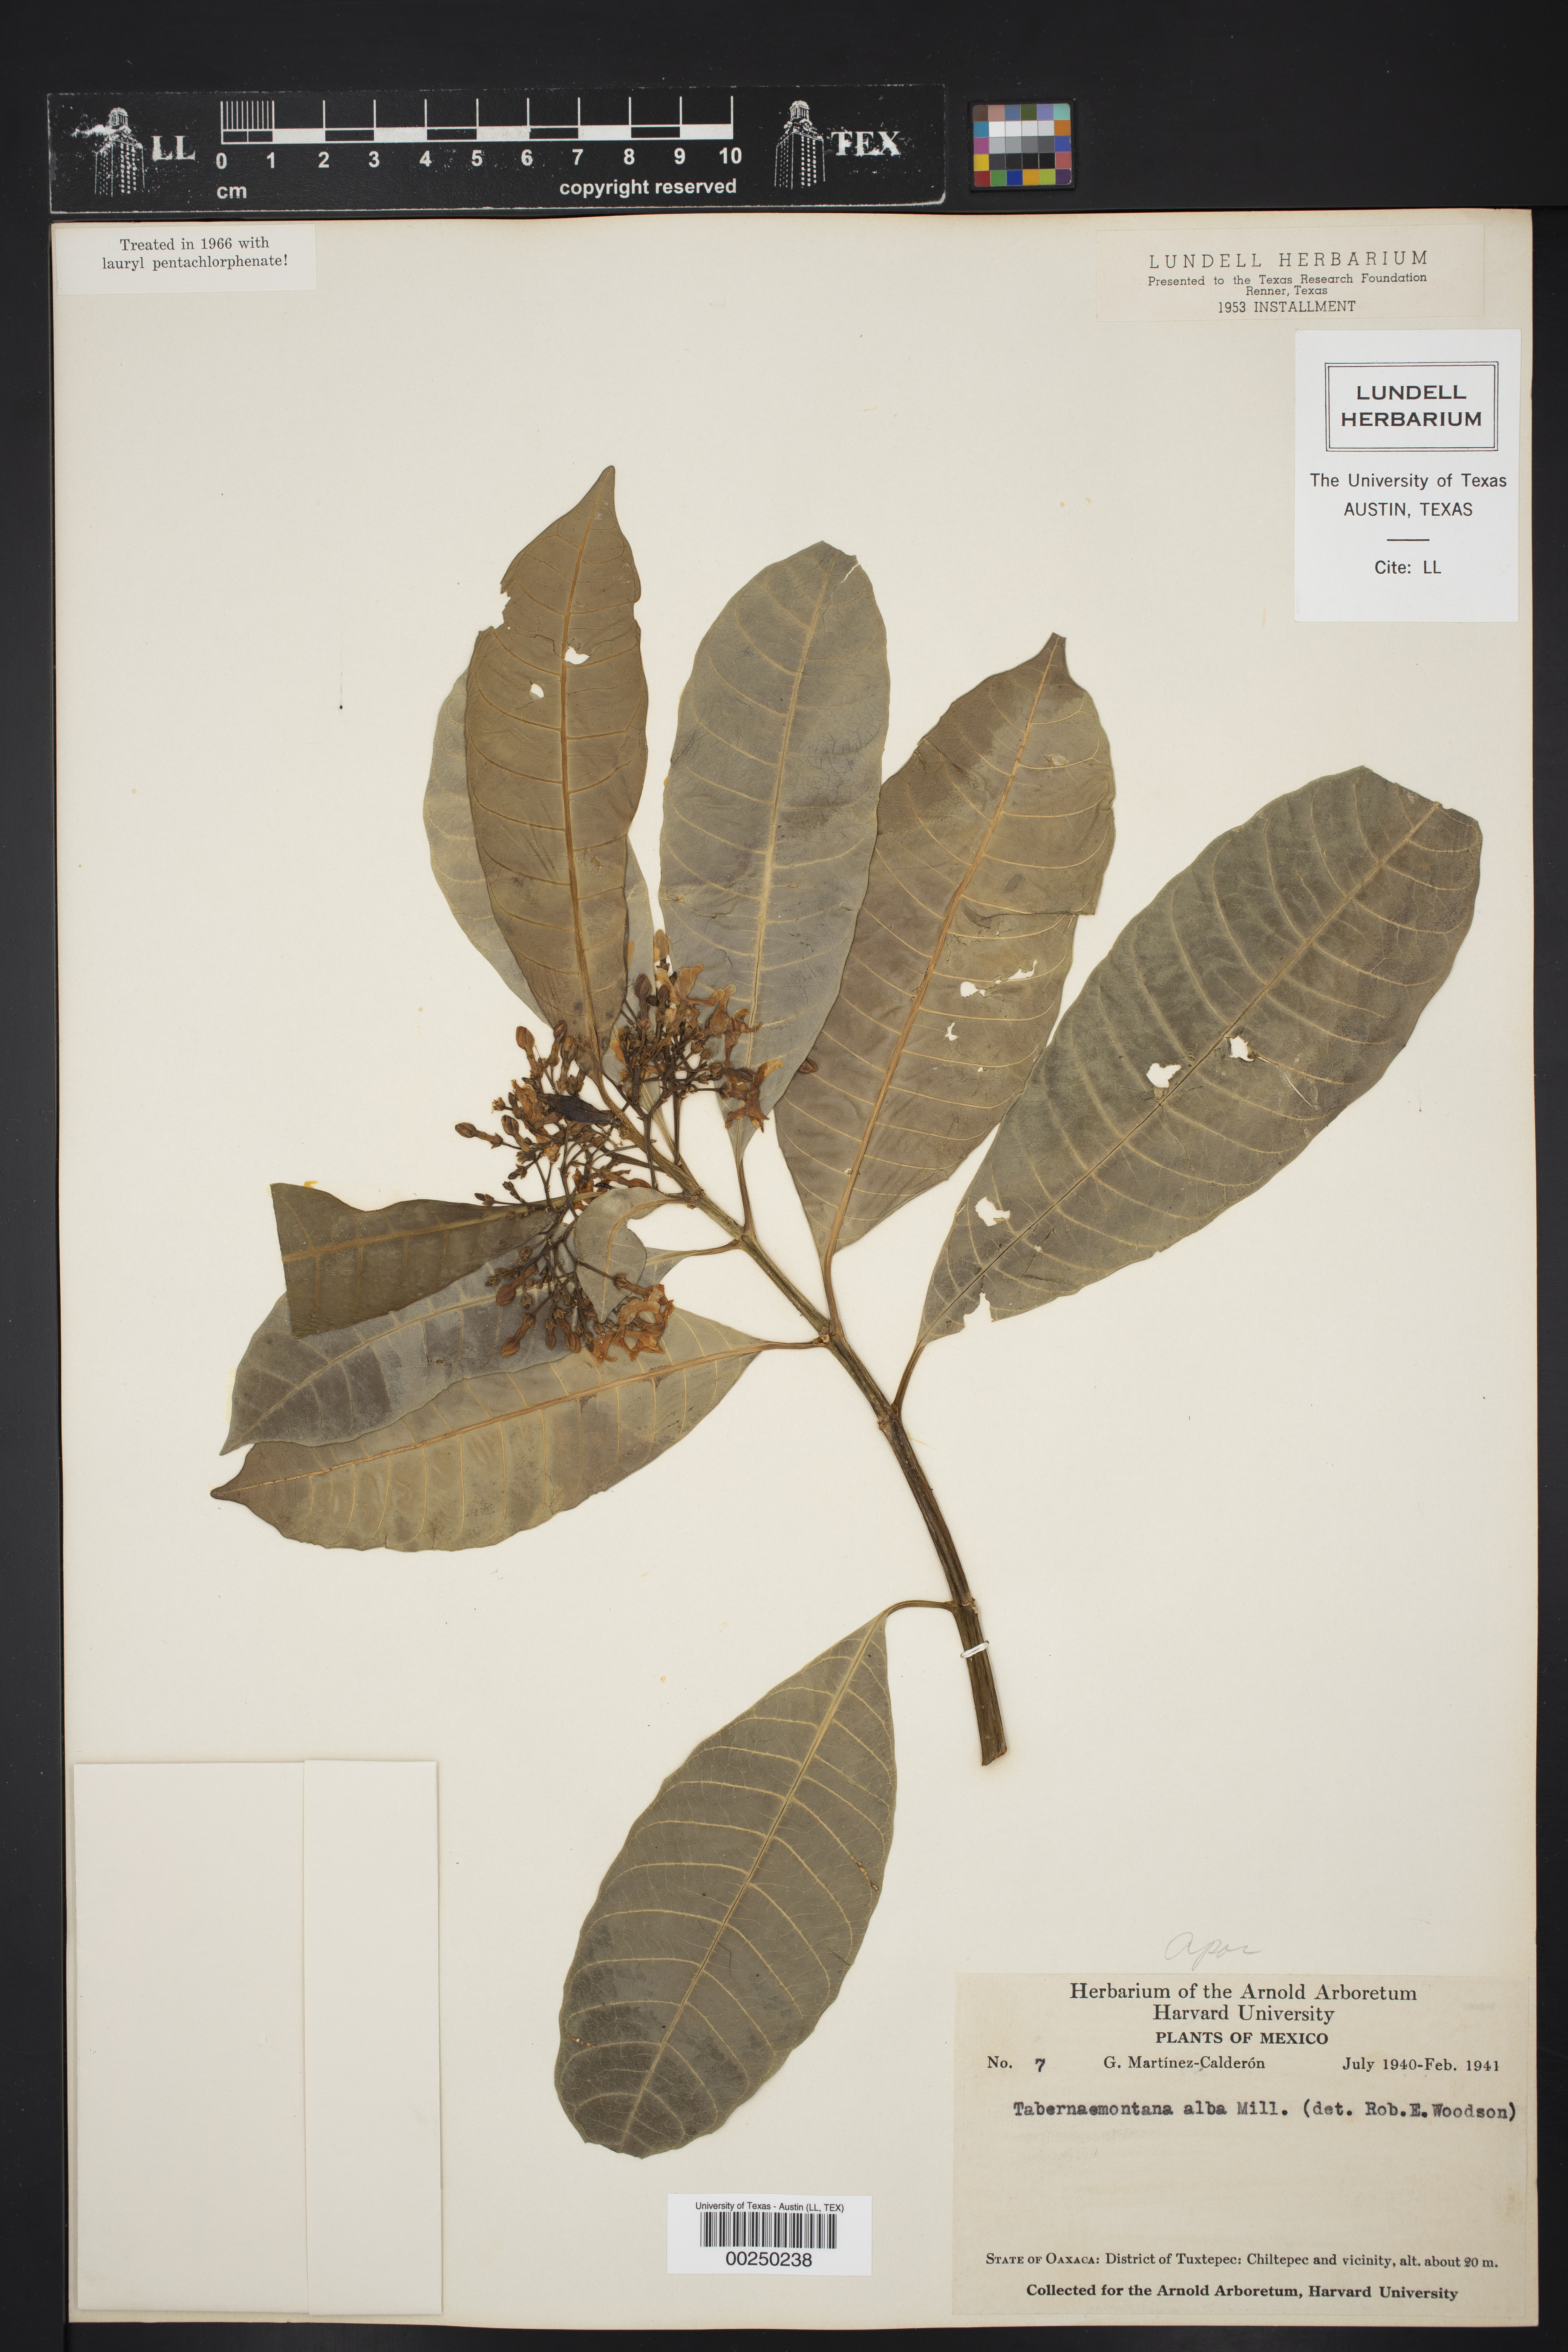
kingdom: Plantae
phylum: Tracheophyta
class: Magnoliopsida
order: Gentianales
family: Apocynaceae
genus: Tabernaemontana
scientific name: Tabernaemontana alba
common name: White milkwood
